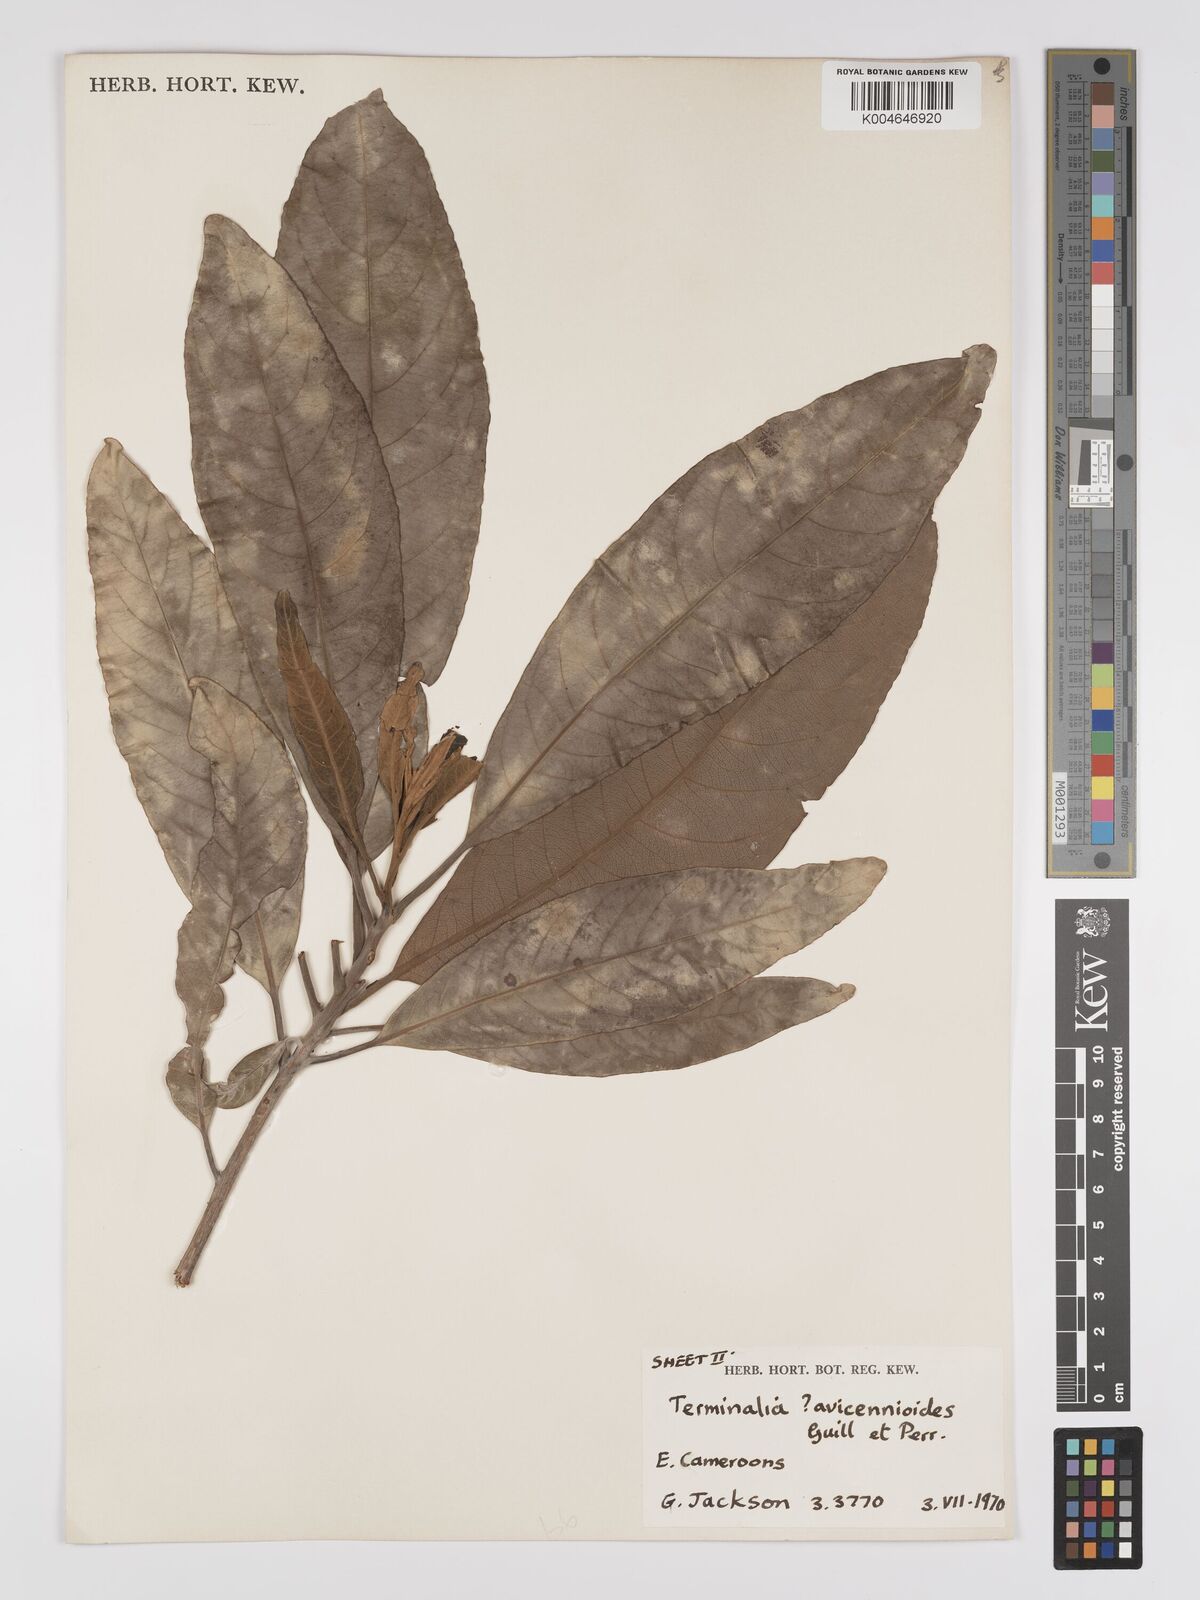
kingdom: Plantae
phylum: Tracheophyta
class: Magnoliopsida
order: Myrtales
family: Combretaceae
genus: Terminalia
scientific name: Terminalia avicennioides
